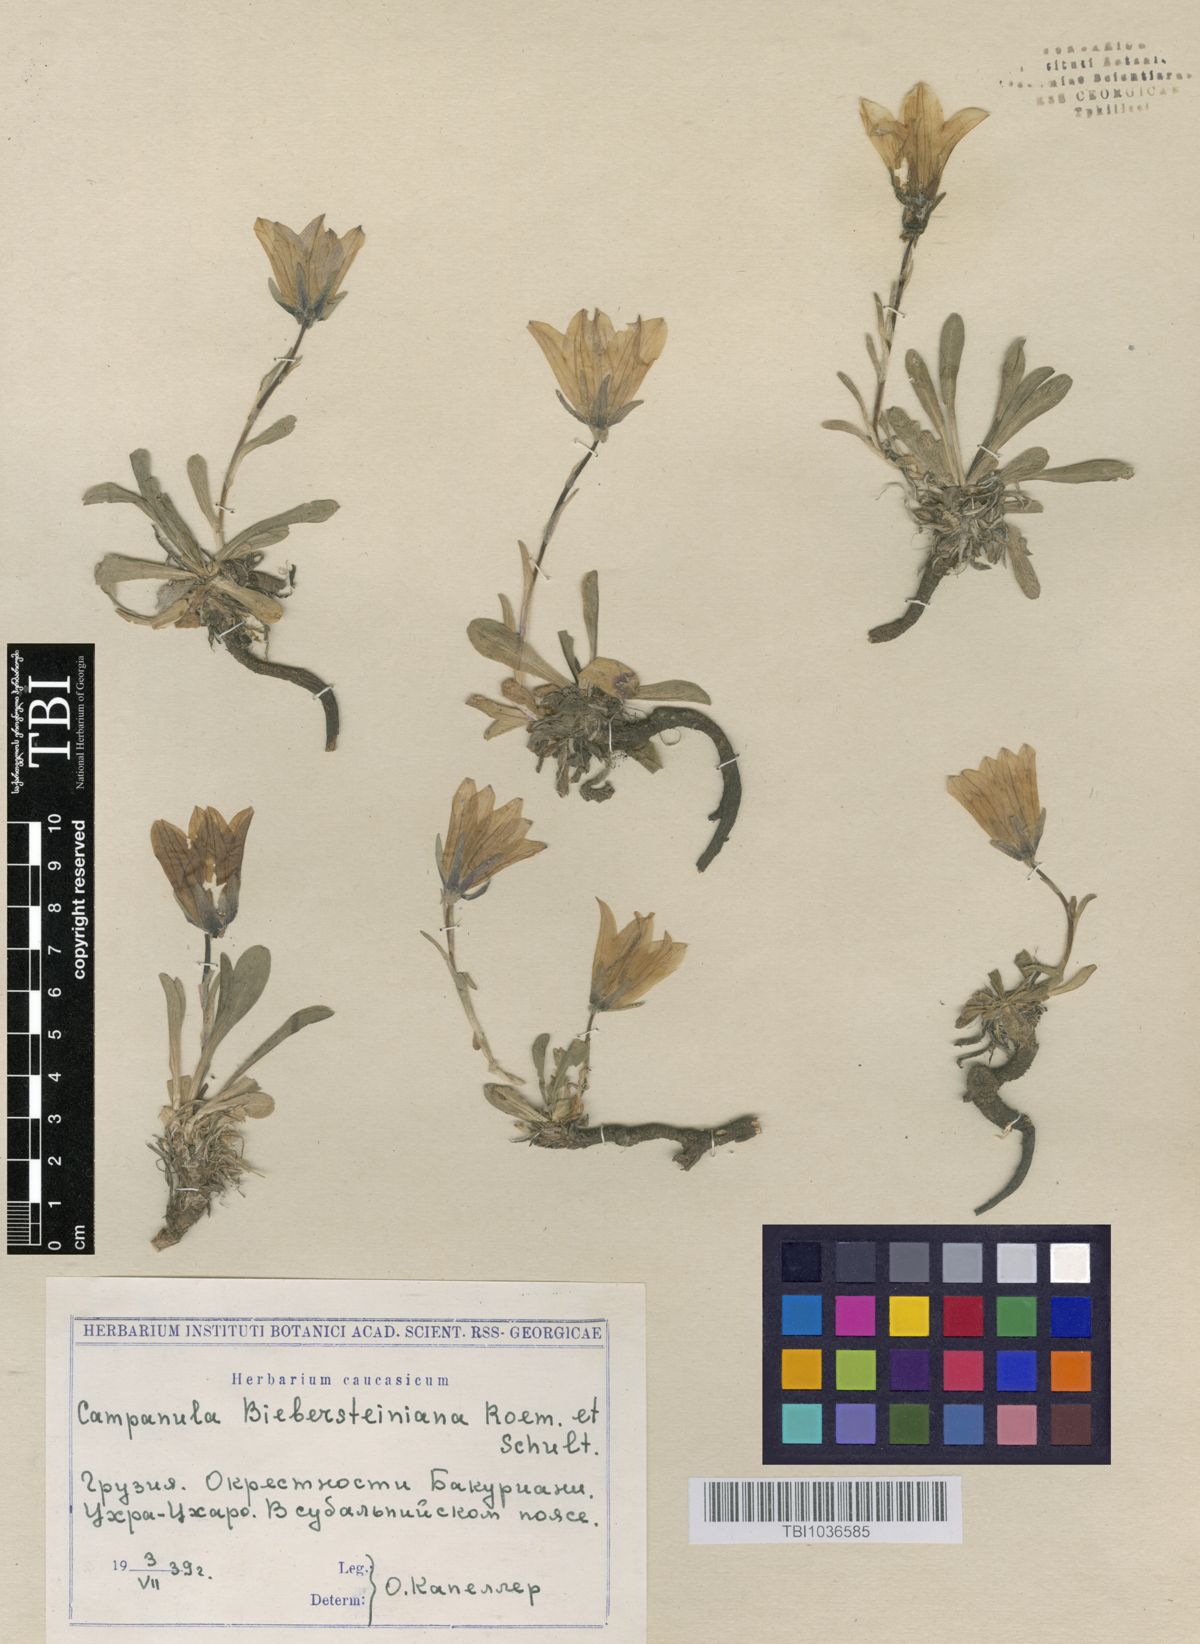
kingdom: Plantae
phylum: Tracheophyta
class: Magnoliopsida
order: Asterales
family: Campanulaceae
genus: Campanula
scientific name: Campanula tridentata
